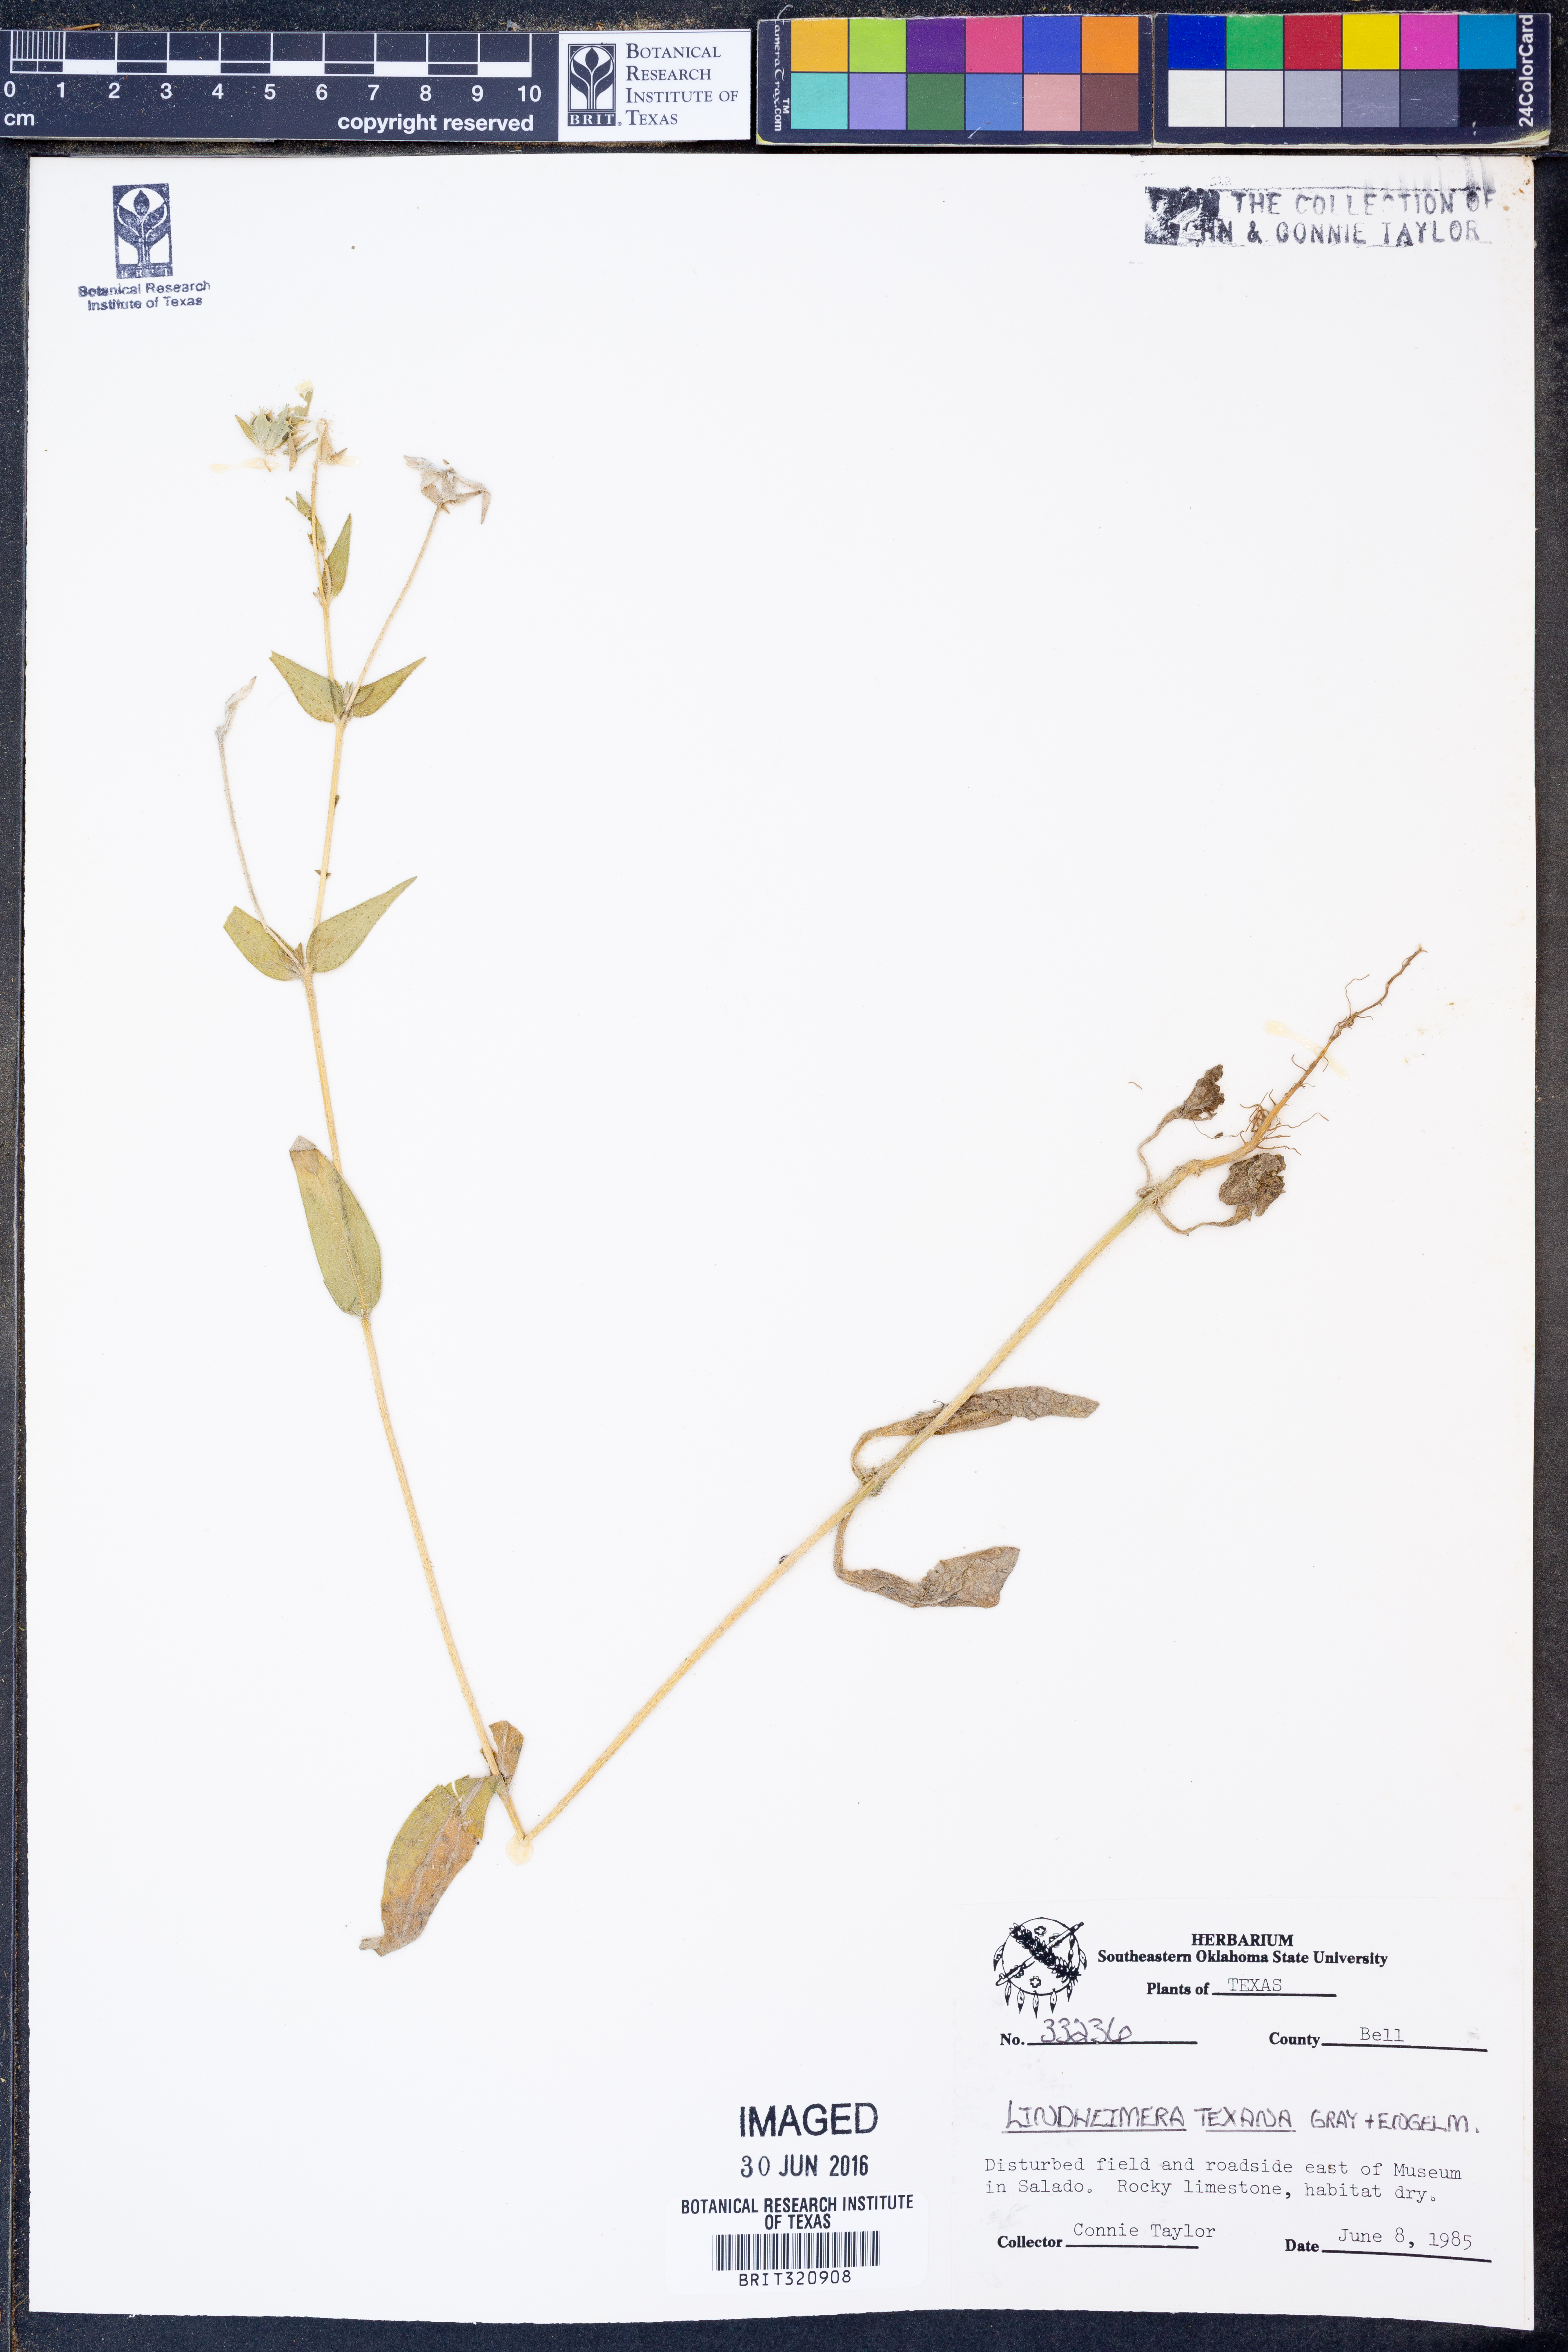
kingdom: Plantae
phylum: Tracheophyta
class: Magnoliopsida
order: Asterales
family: Asteraceae
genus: Lindheimera
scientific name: Lindheimera texana
